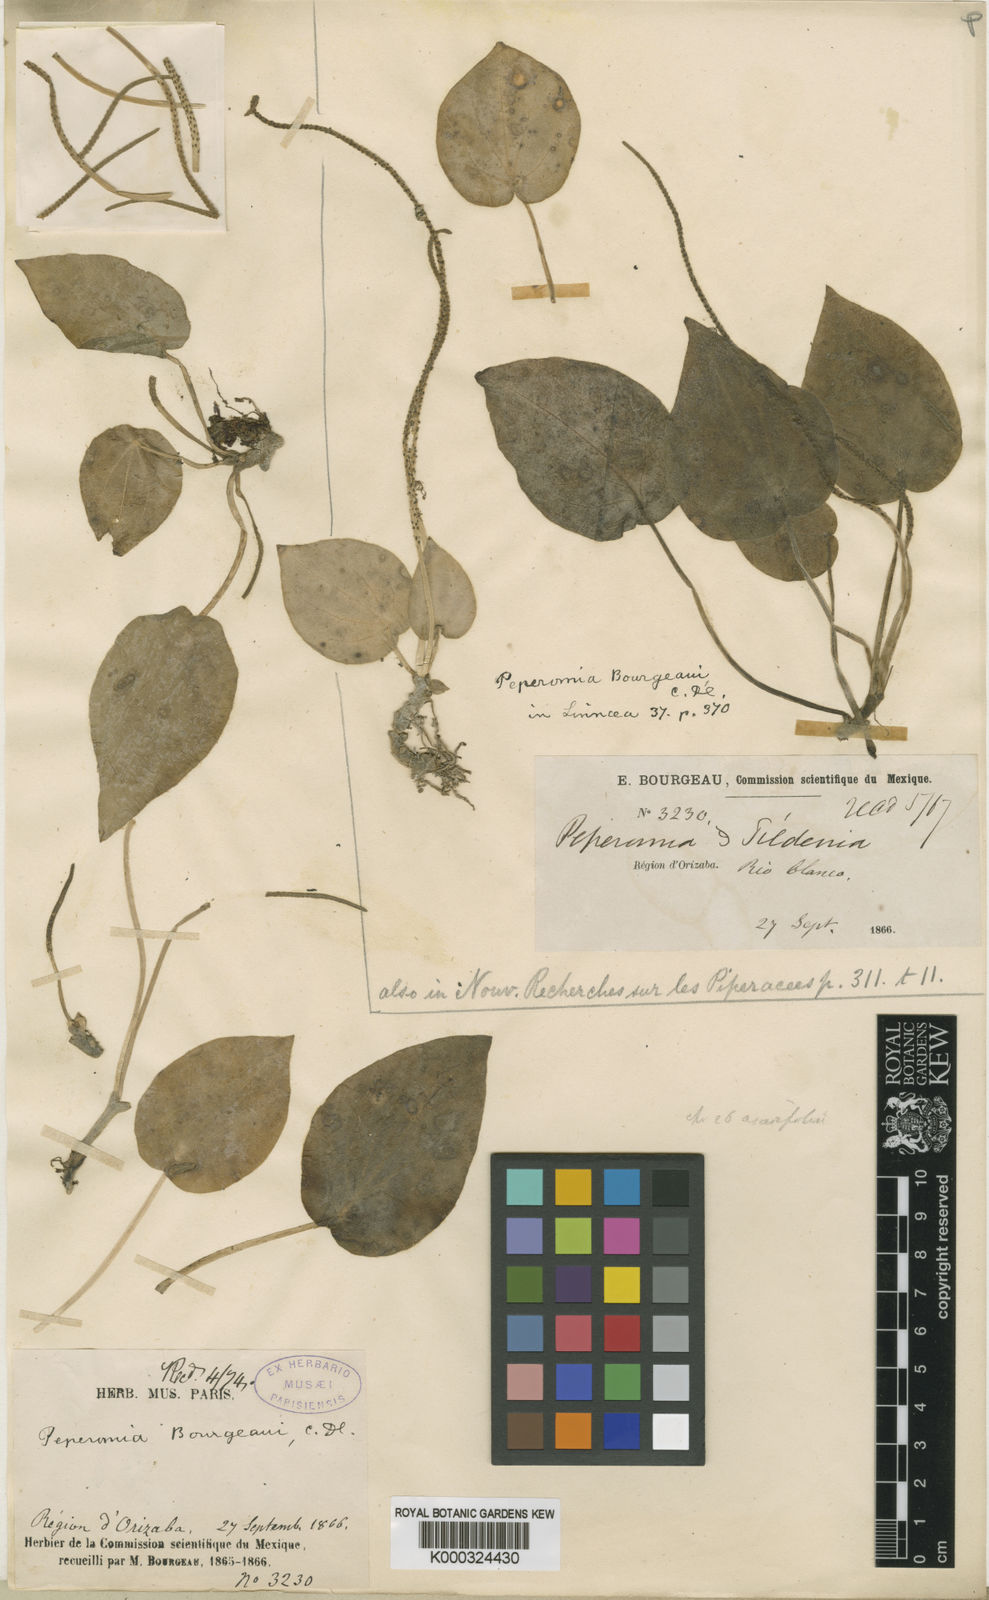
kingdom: Plantae
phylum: Tracheophyta
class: Magnoliopsida
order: Piperales
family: Piperaceae
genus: Peperomia
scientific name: Peperomia lanceolatopeltata
